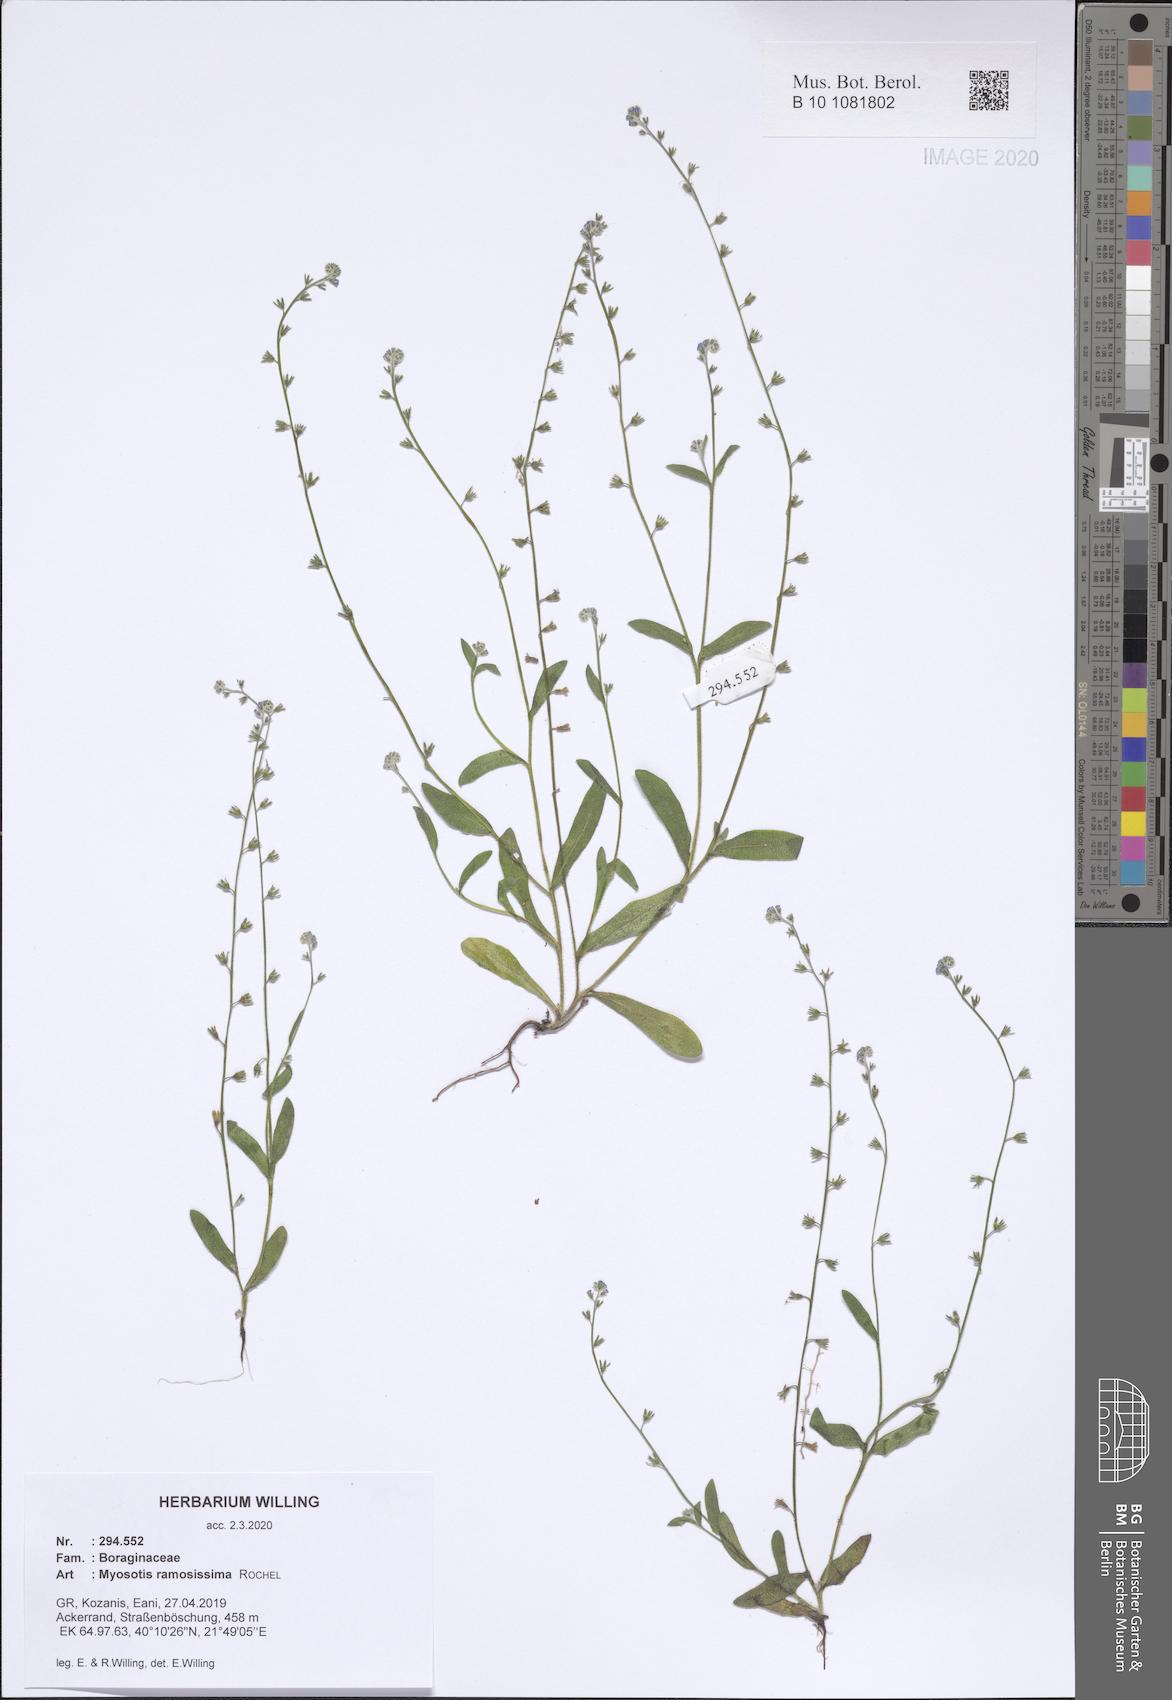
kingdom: Plantae
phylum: Tracheophyta
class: Magnoliopsida
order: Boraginales
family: Boraginaceae
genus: Myosotis
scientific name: Myosotis ramosissima
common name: Early forget-me-not
